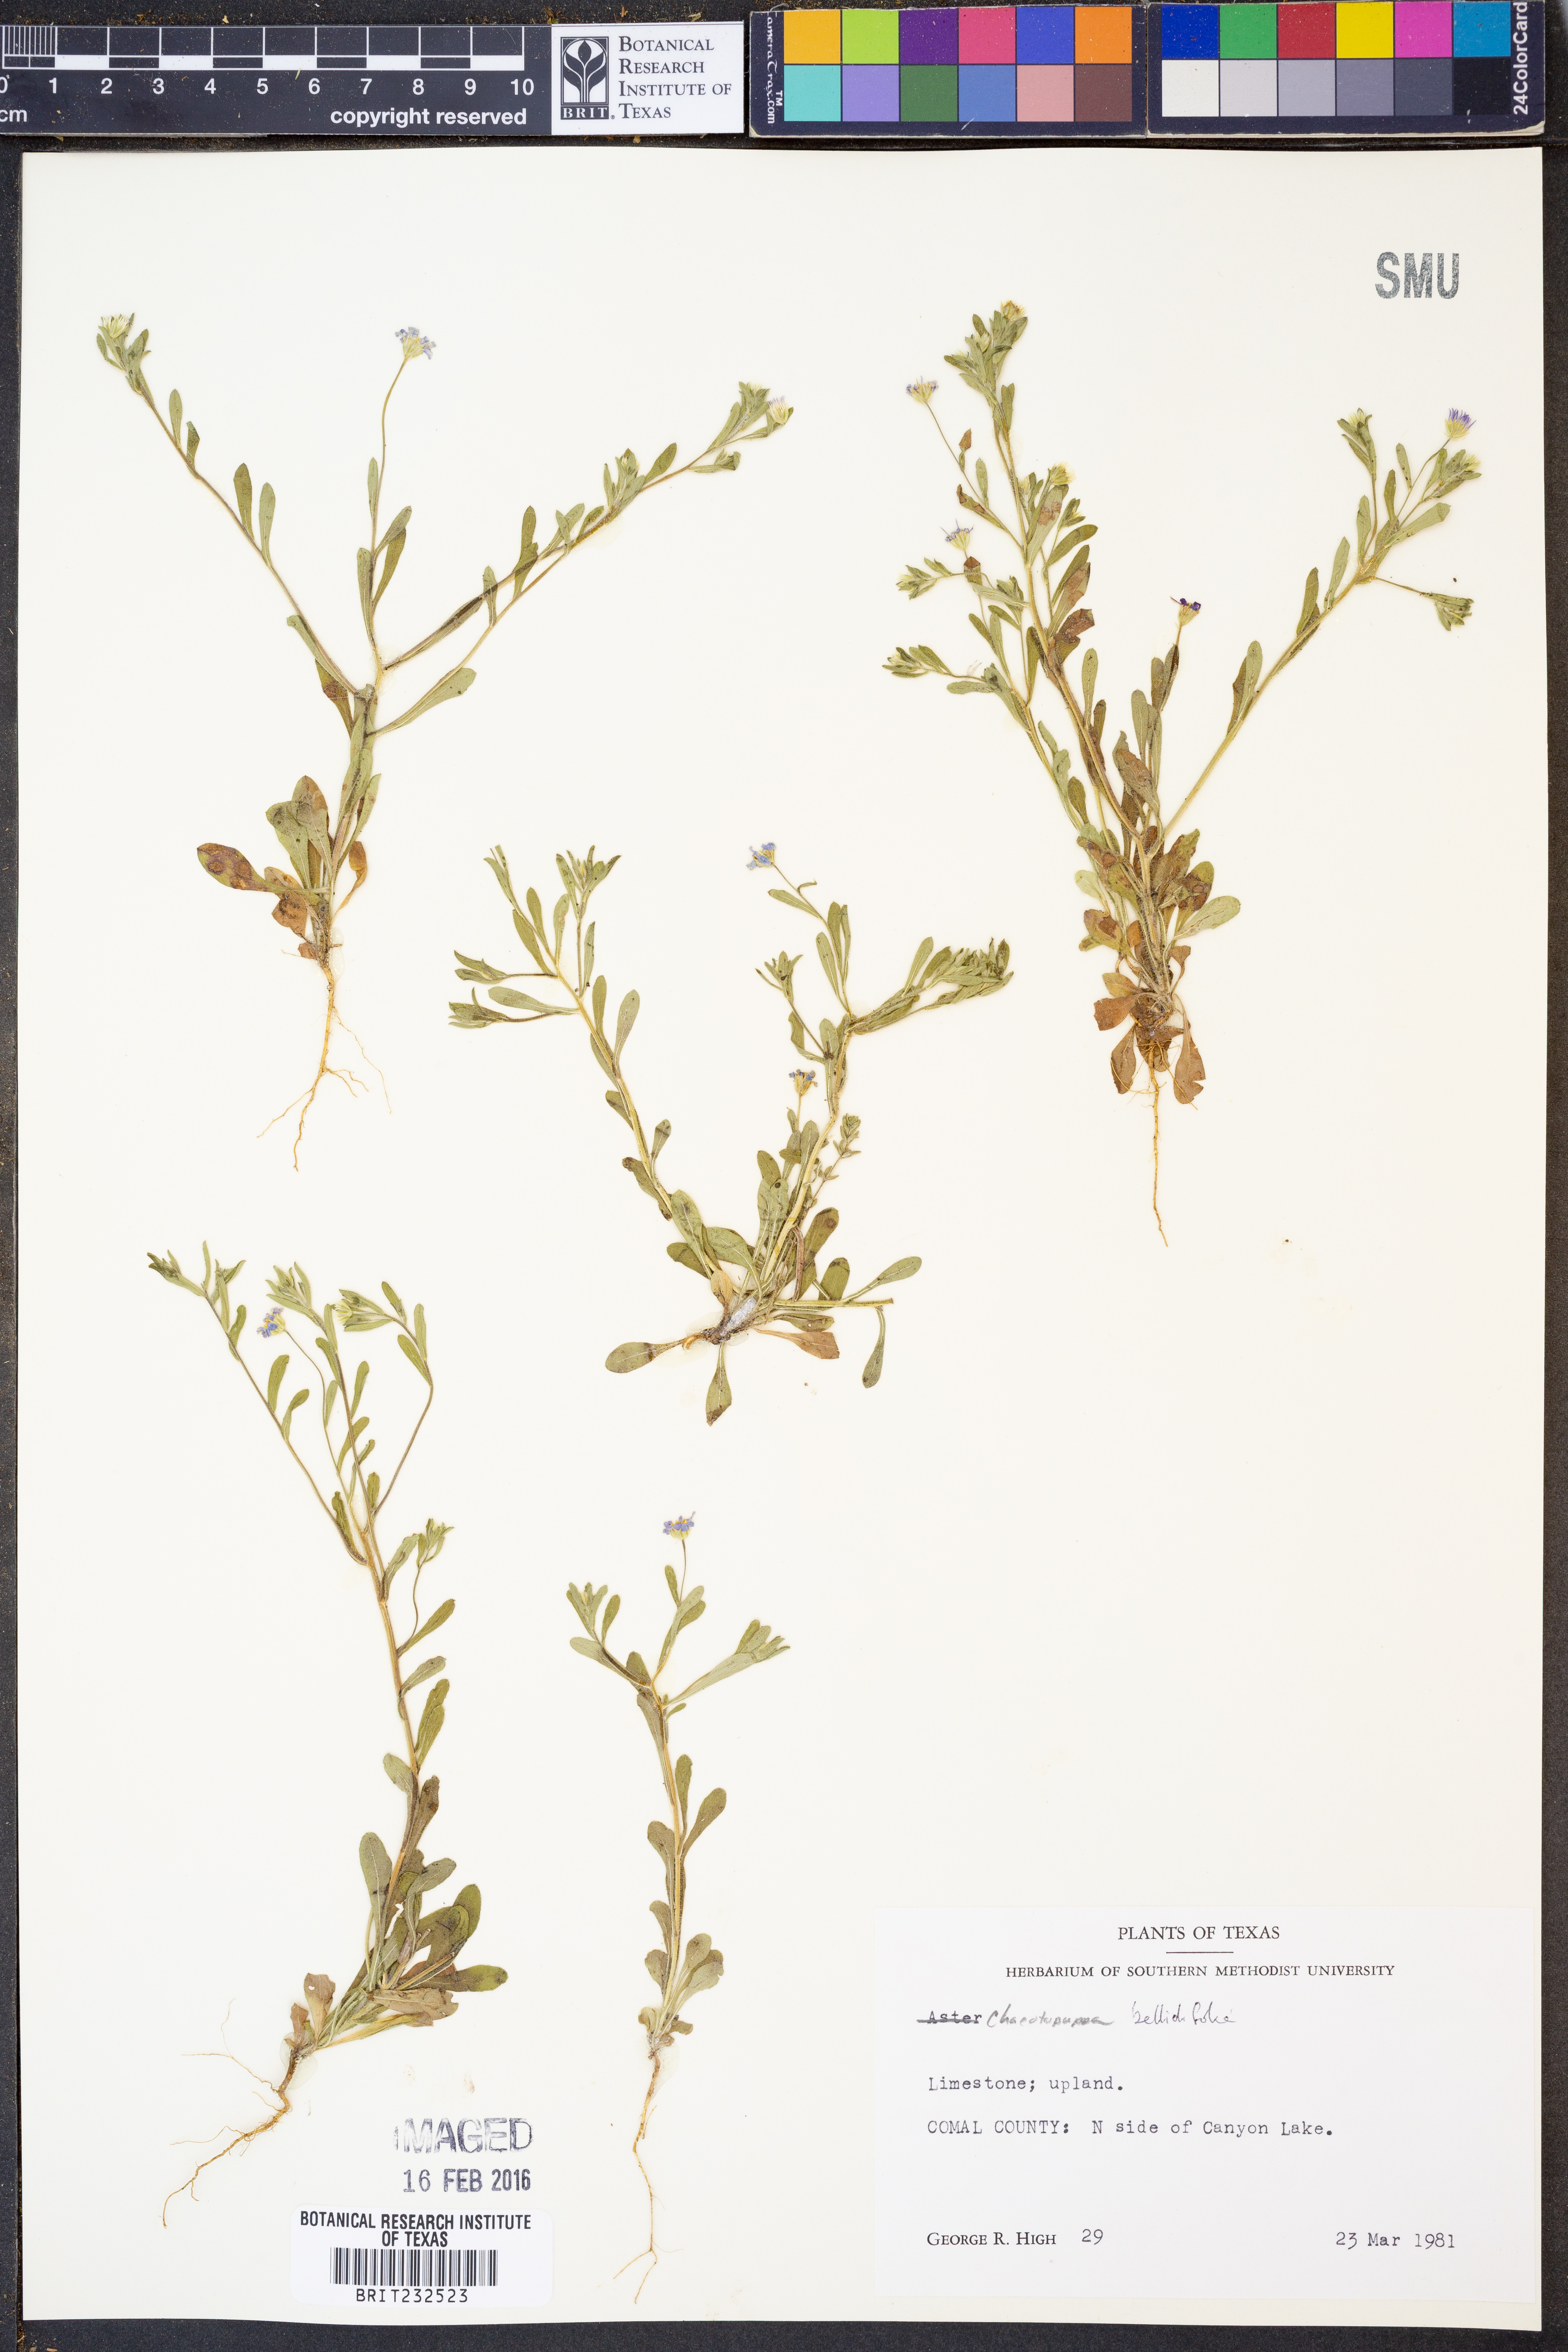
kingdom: Plantae
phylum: Tracheophyta
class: Magnoliopsida
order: Asterales
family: Asteraceae
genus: Chaetopappa
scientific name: Chaetopappa bellidifolia
